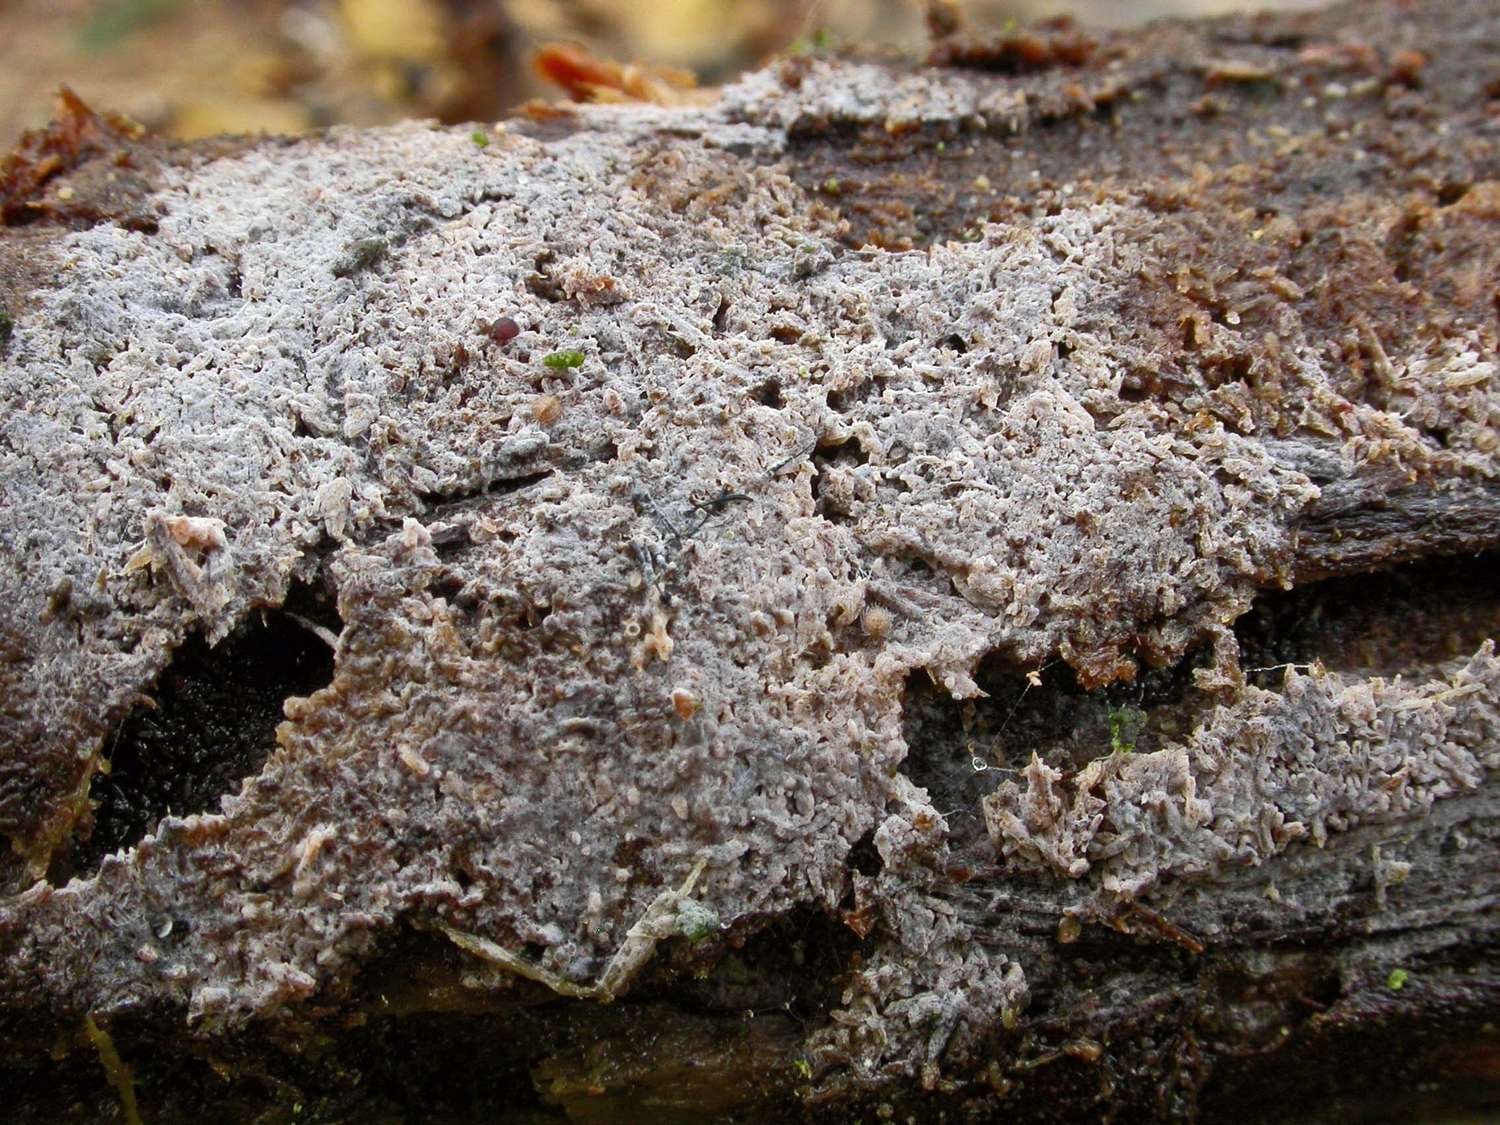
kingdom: Fungi
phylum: Basidiomycota
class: Agaricomycetes
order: Cantharellales
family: Tulasnellaceae
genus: Tulasnella
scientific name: Tulasnella albida
